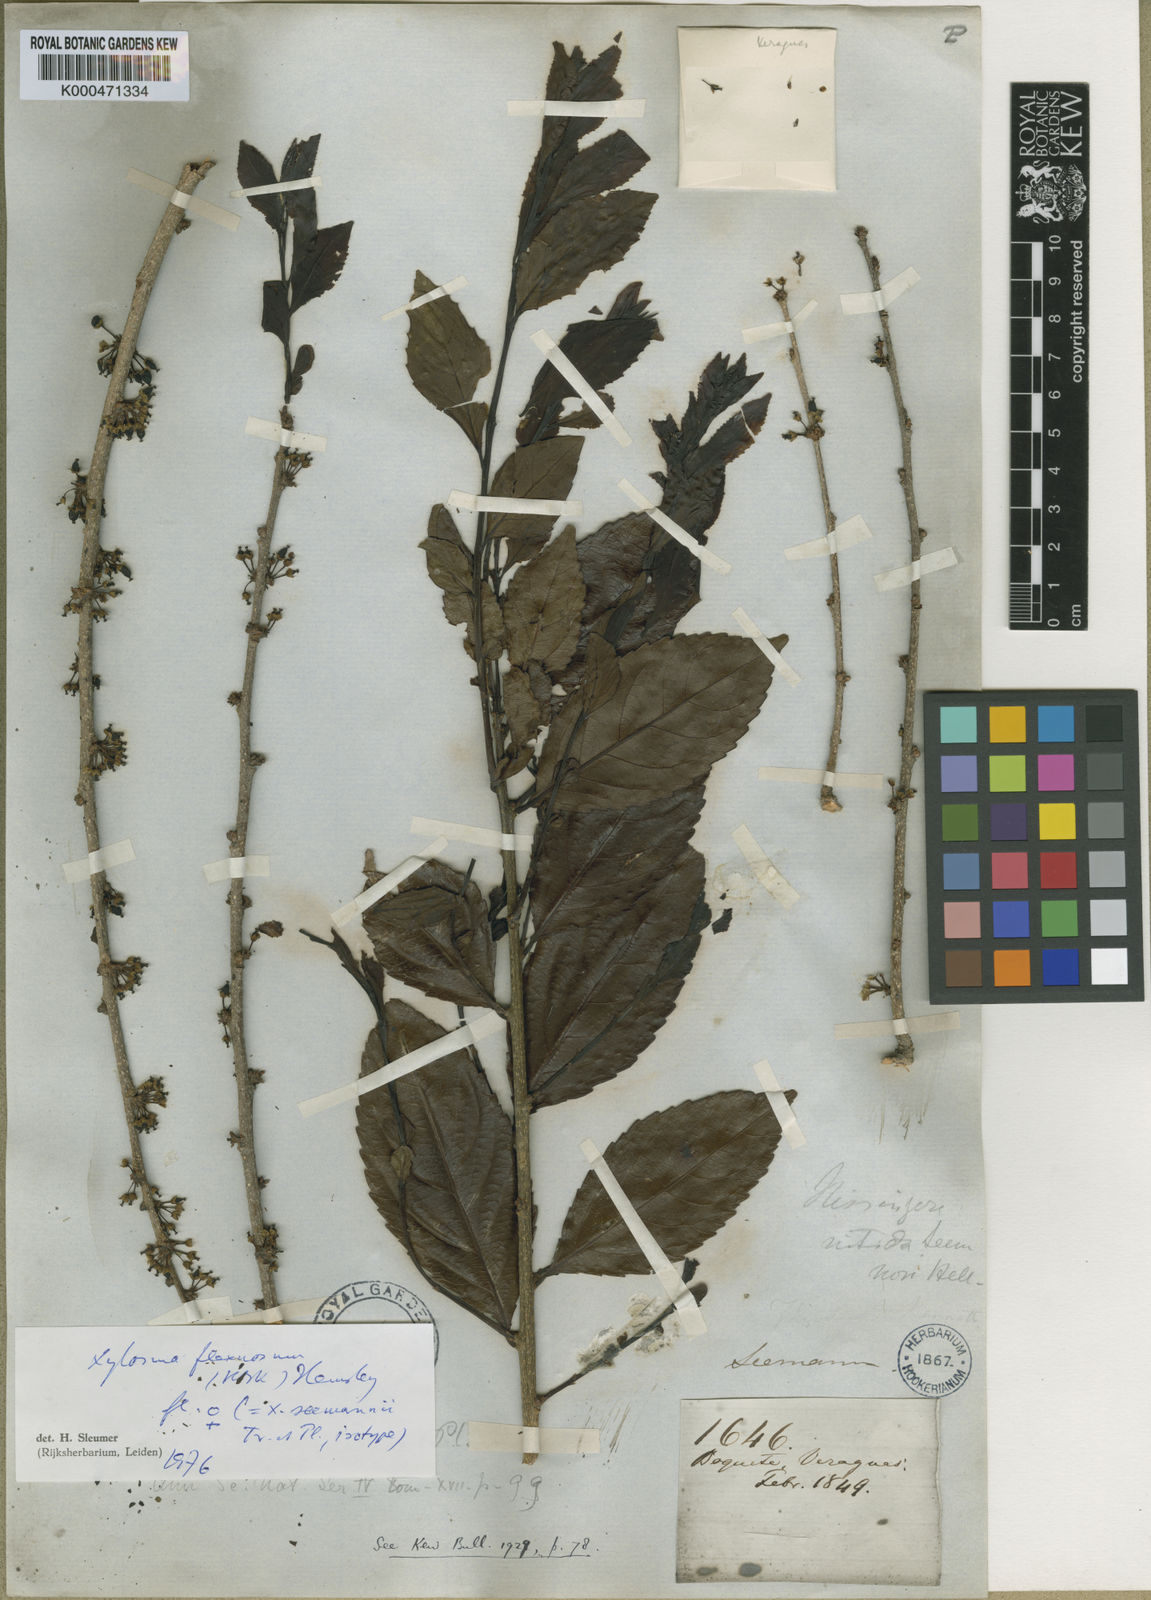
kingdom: Plantae
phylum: Tracheophyta
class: Magnoliopsida
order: Malpighiales
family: Salicaceae
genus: Xylosma
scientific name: Xylosma flexuosa
